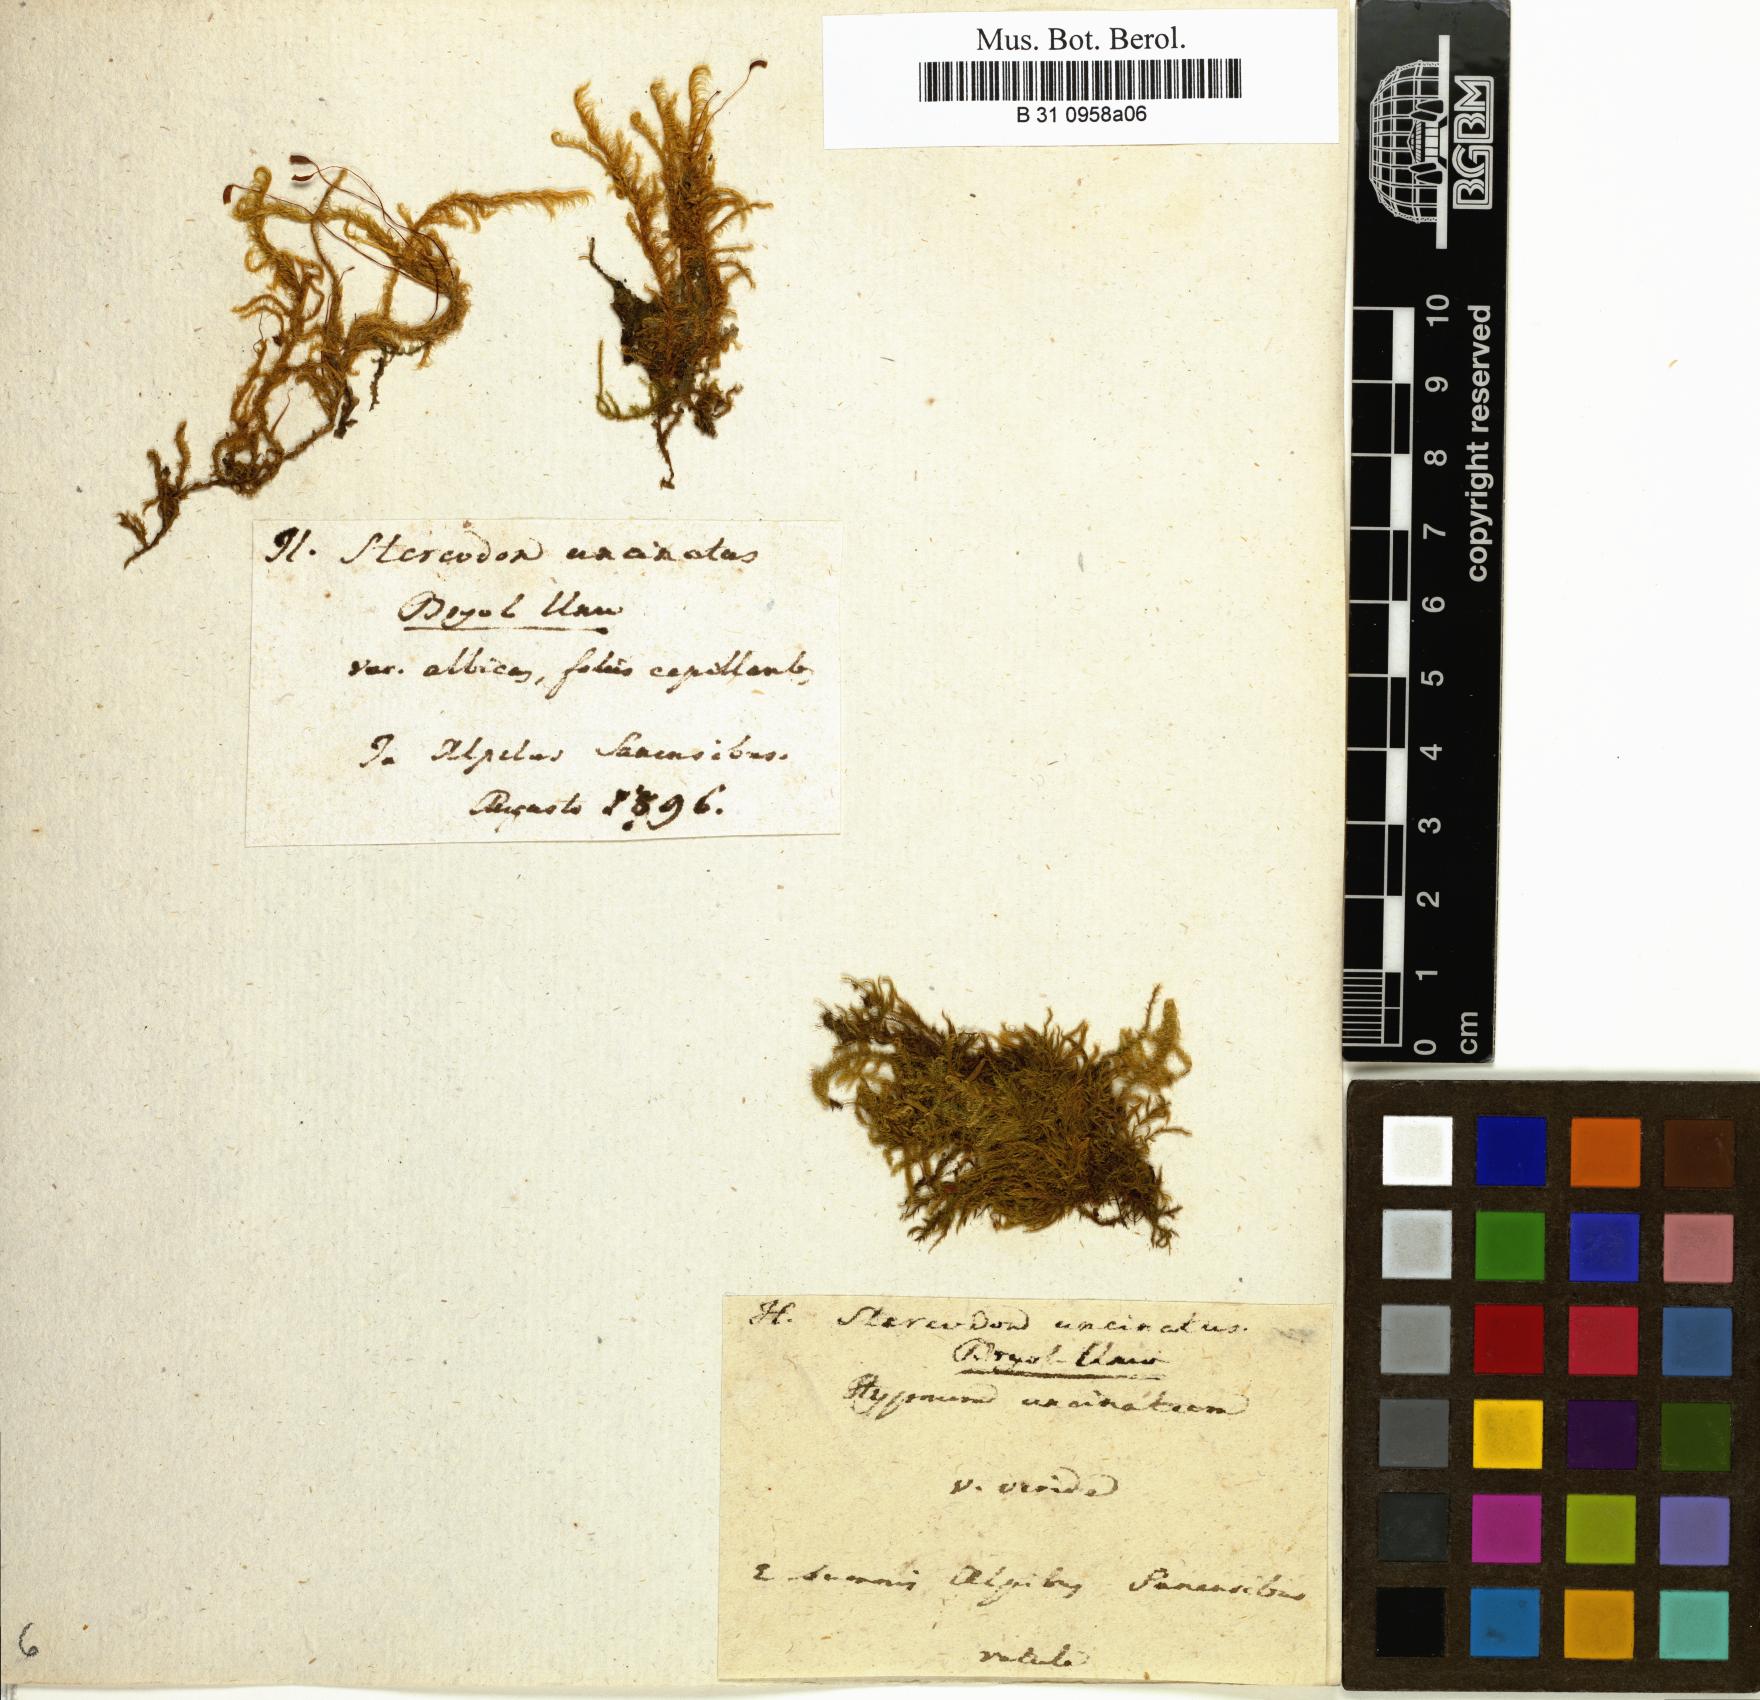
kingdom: Plantae
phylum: Bryophyta
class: Bryopsida
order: Hypnales
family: Scorpidiaceae
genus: Sanionia
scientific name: Sanionia uncinata
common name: Sickle moss
